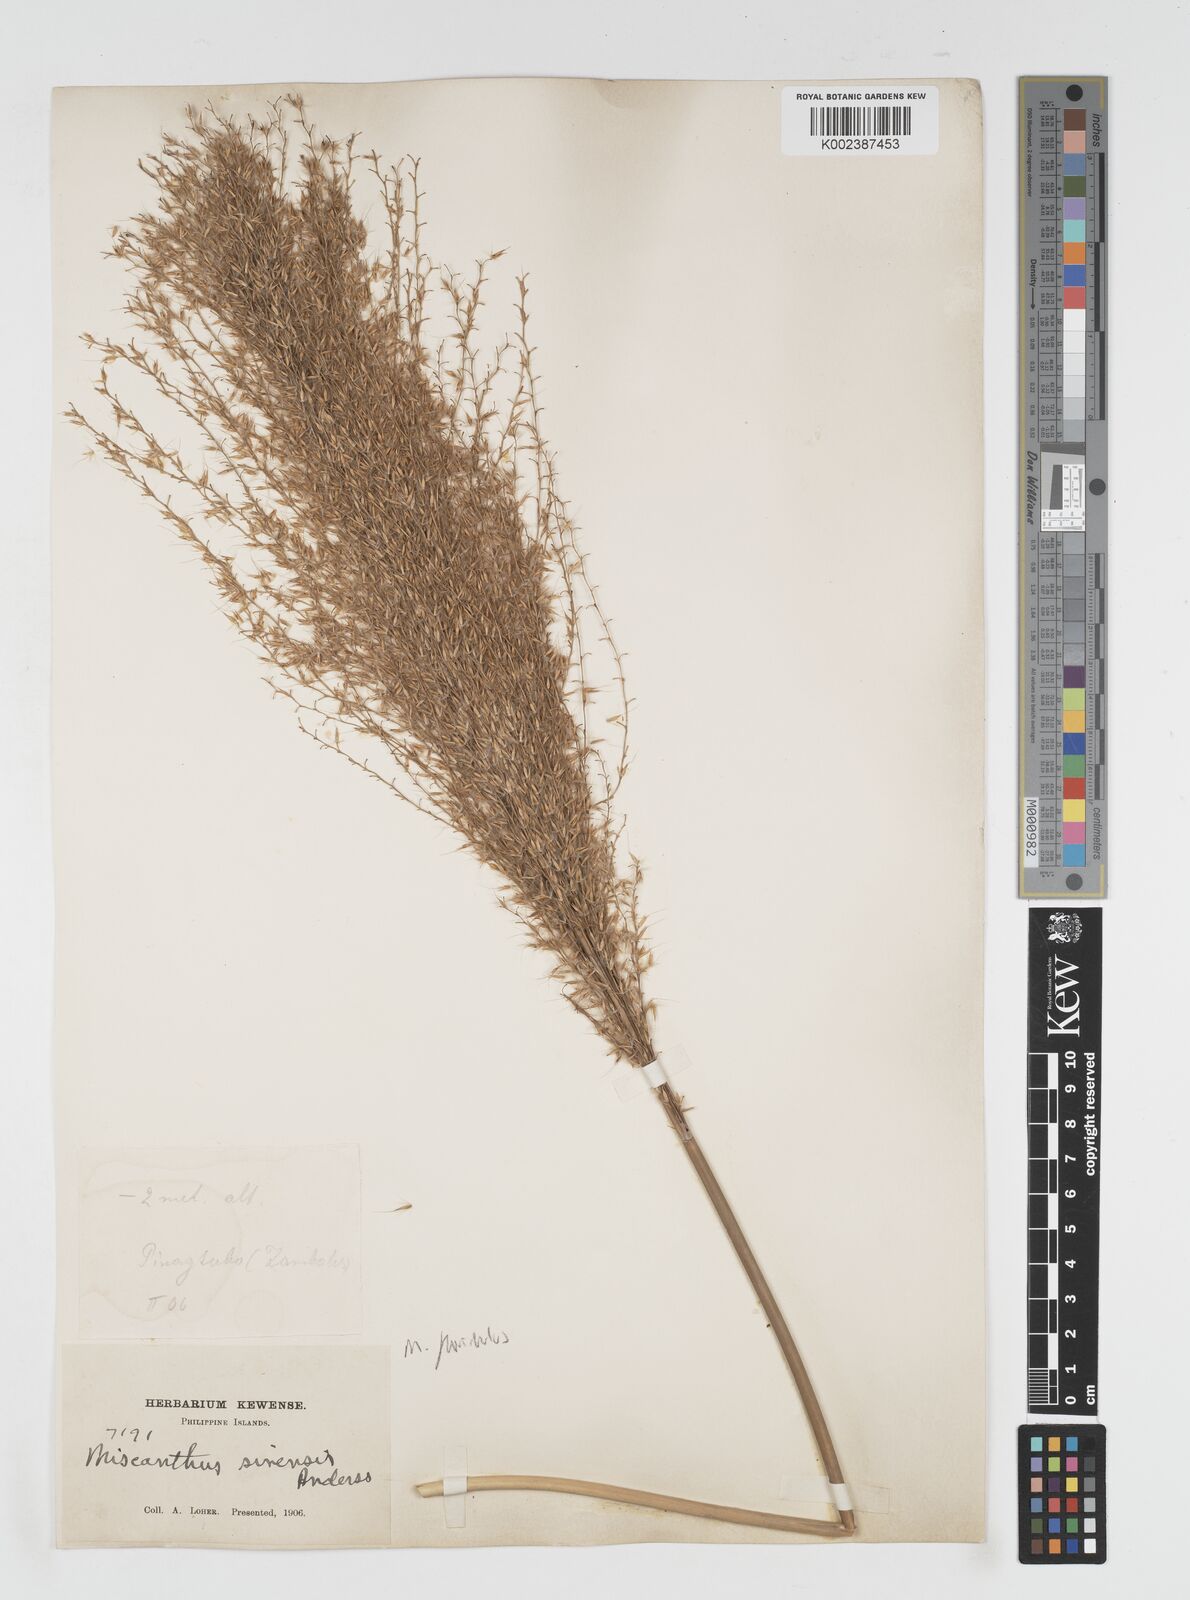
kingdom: Plantae
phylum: Tracheophyta
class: Liliopsida
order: Poales
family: Poaceae
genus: Miscanthus
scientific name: Miscanthus
